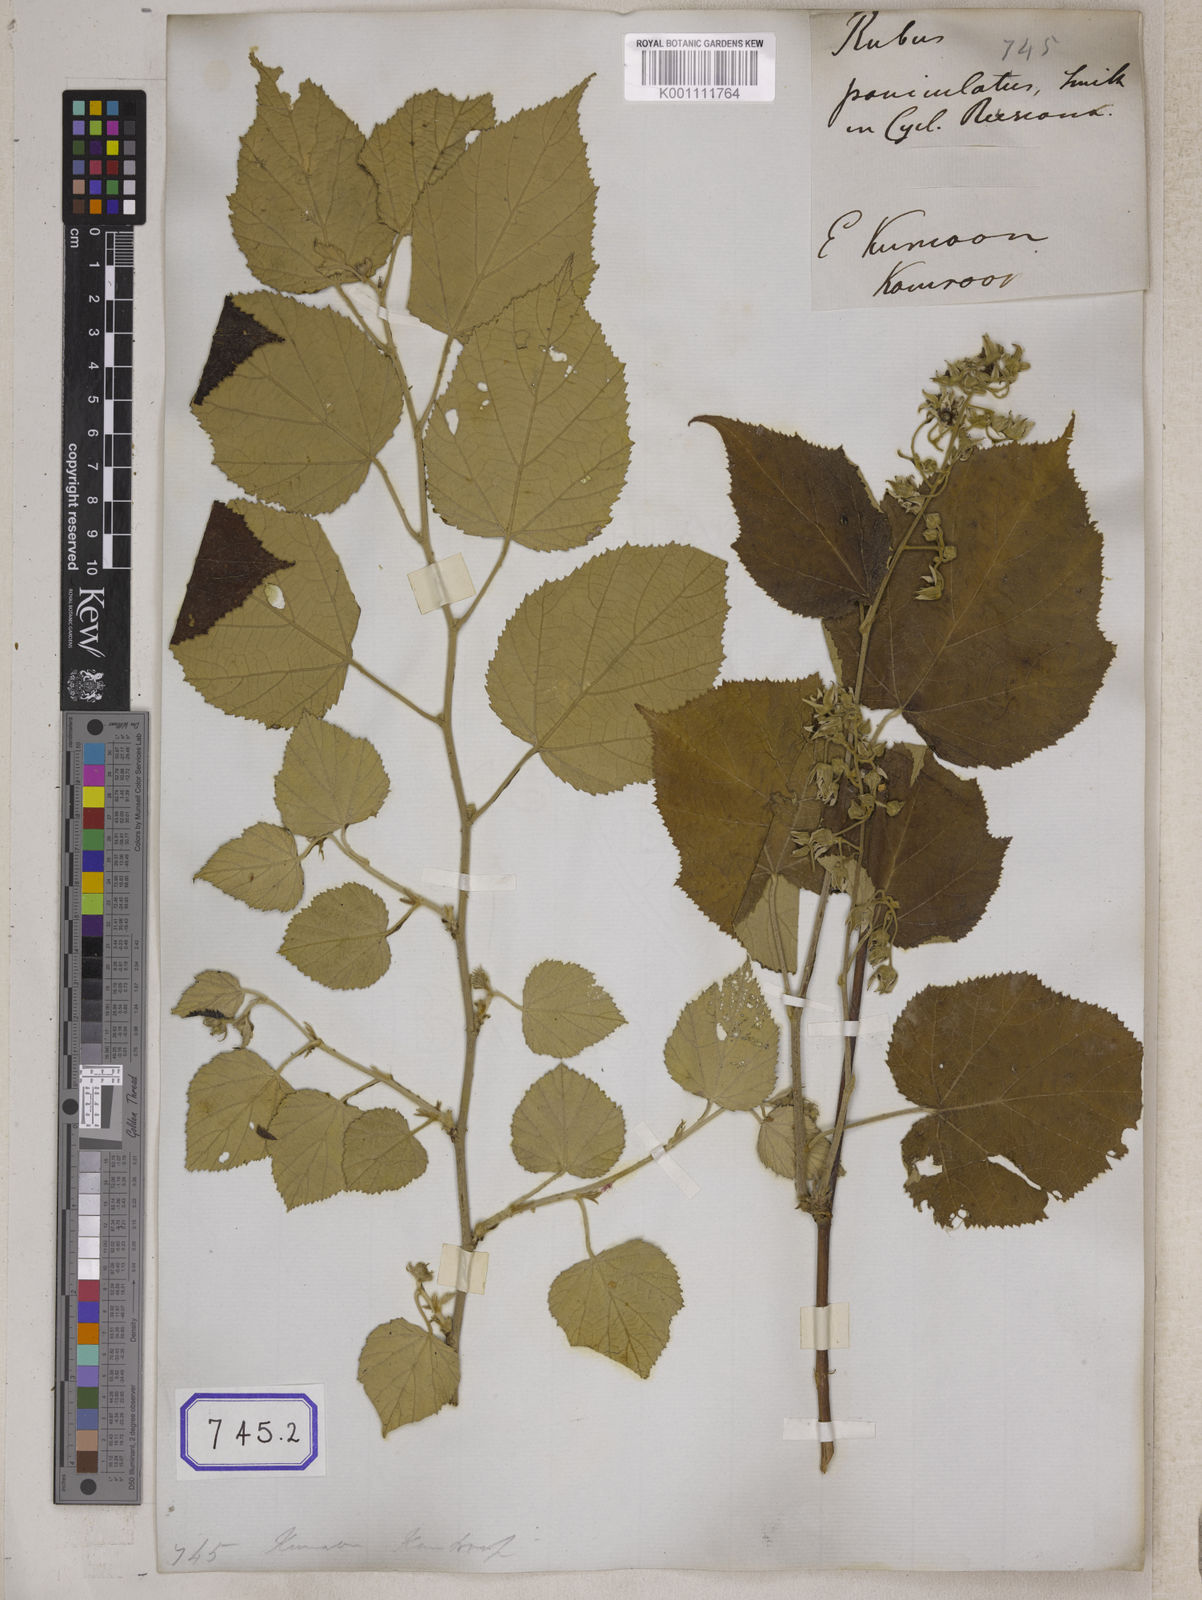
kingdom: Plantae
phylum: Tracheophyta
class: Magnoliopsida
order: Rosales
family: Rosaceae
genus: Rubus
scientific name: Rubus paniculatus
